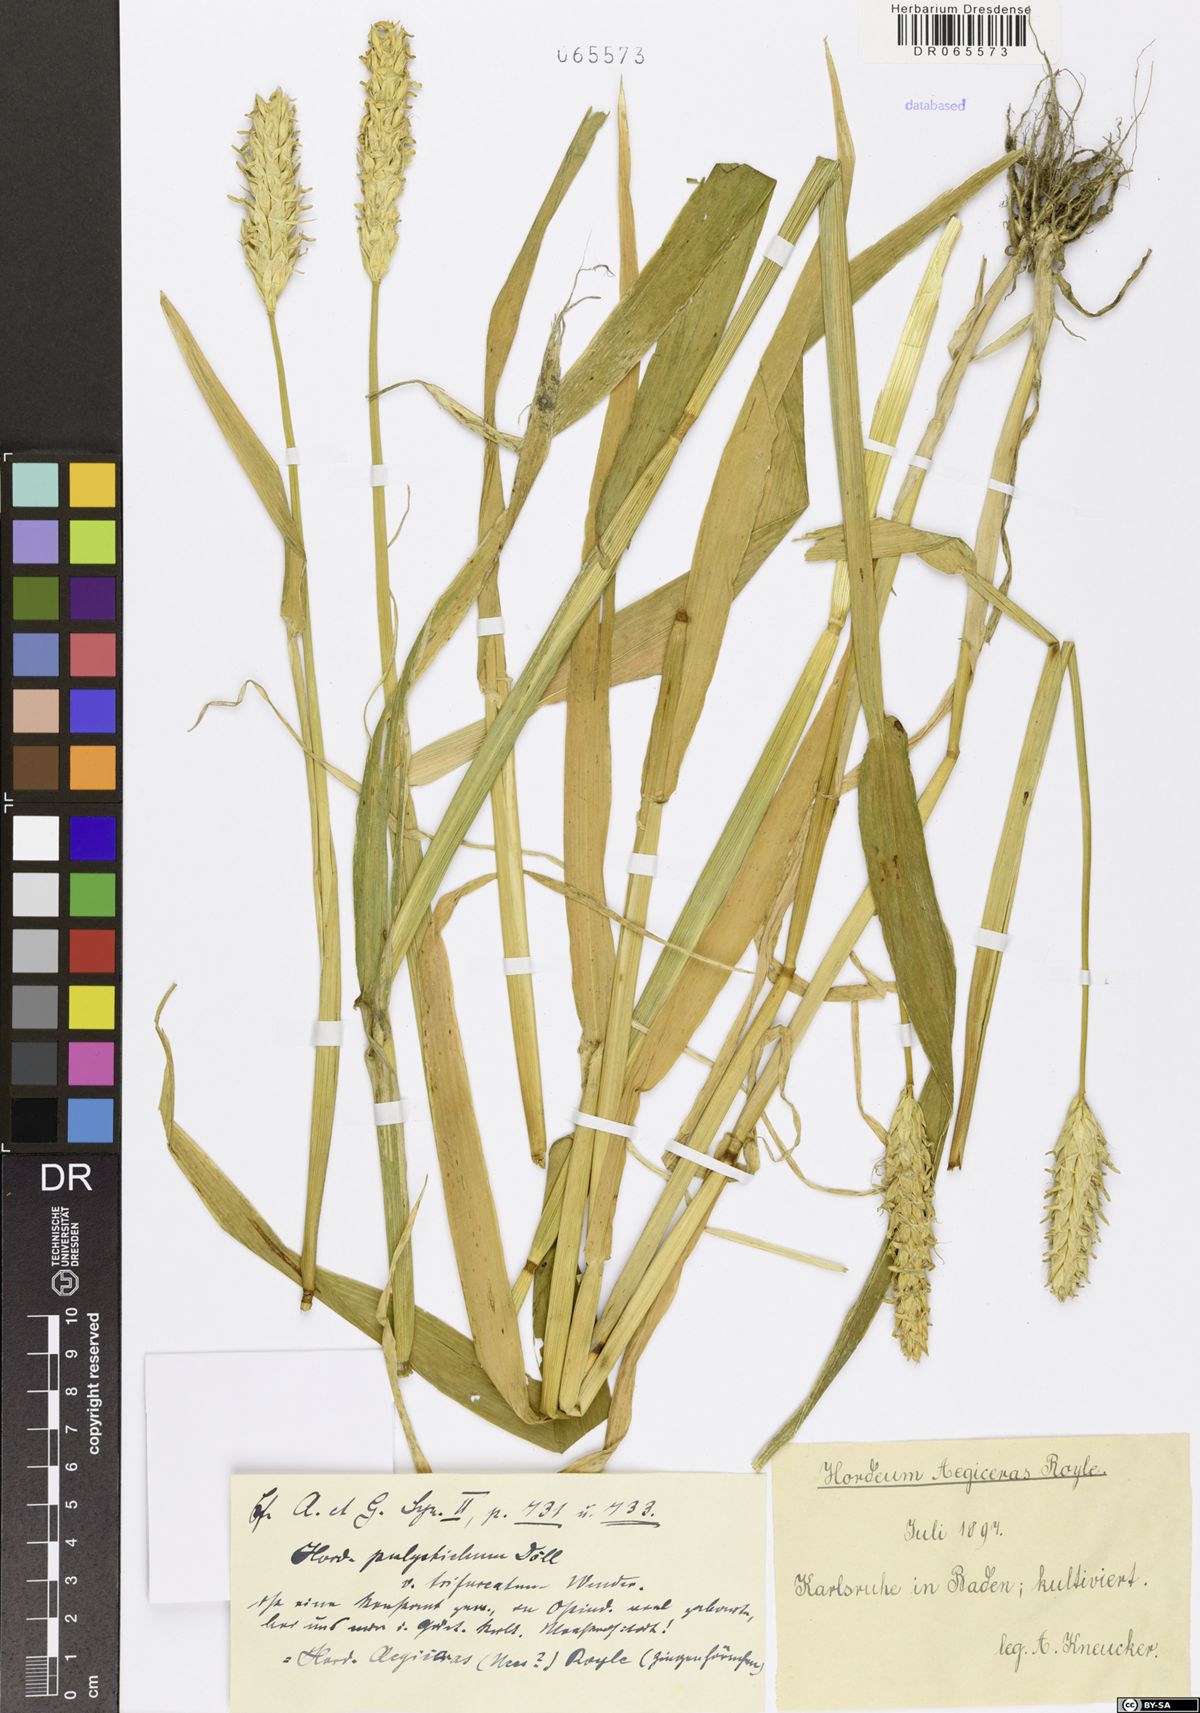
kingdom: Plantae
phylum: Tracheophyta
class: Liliopsida
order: Poales
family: Poaceae
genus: Hordeum
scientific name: Hordeum aegiceras
